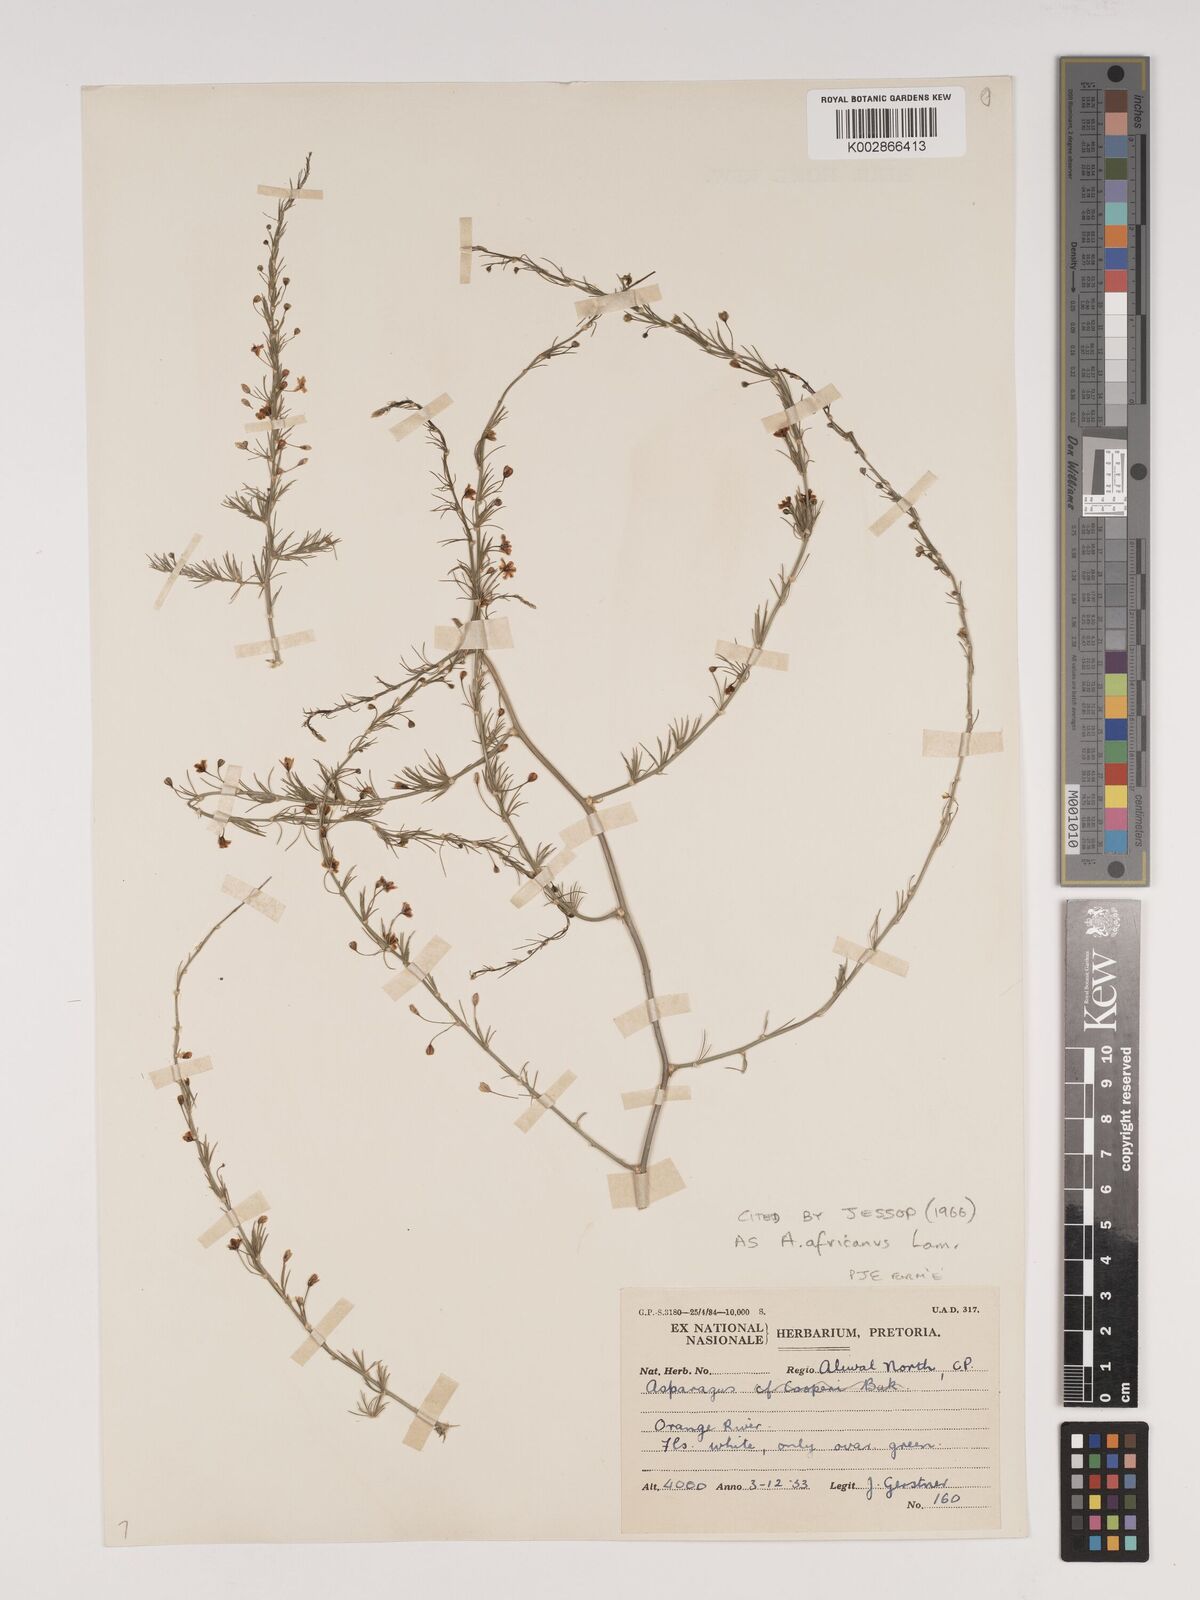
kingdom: Plantae
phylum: Tracheophyta
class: Liliopsida
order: Asparagales
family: Asparagaceae
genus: Asparagus
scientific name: Asparagus africanus
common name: Asparagus-fern
